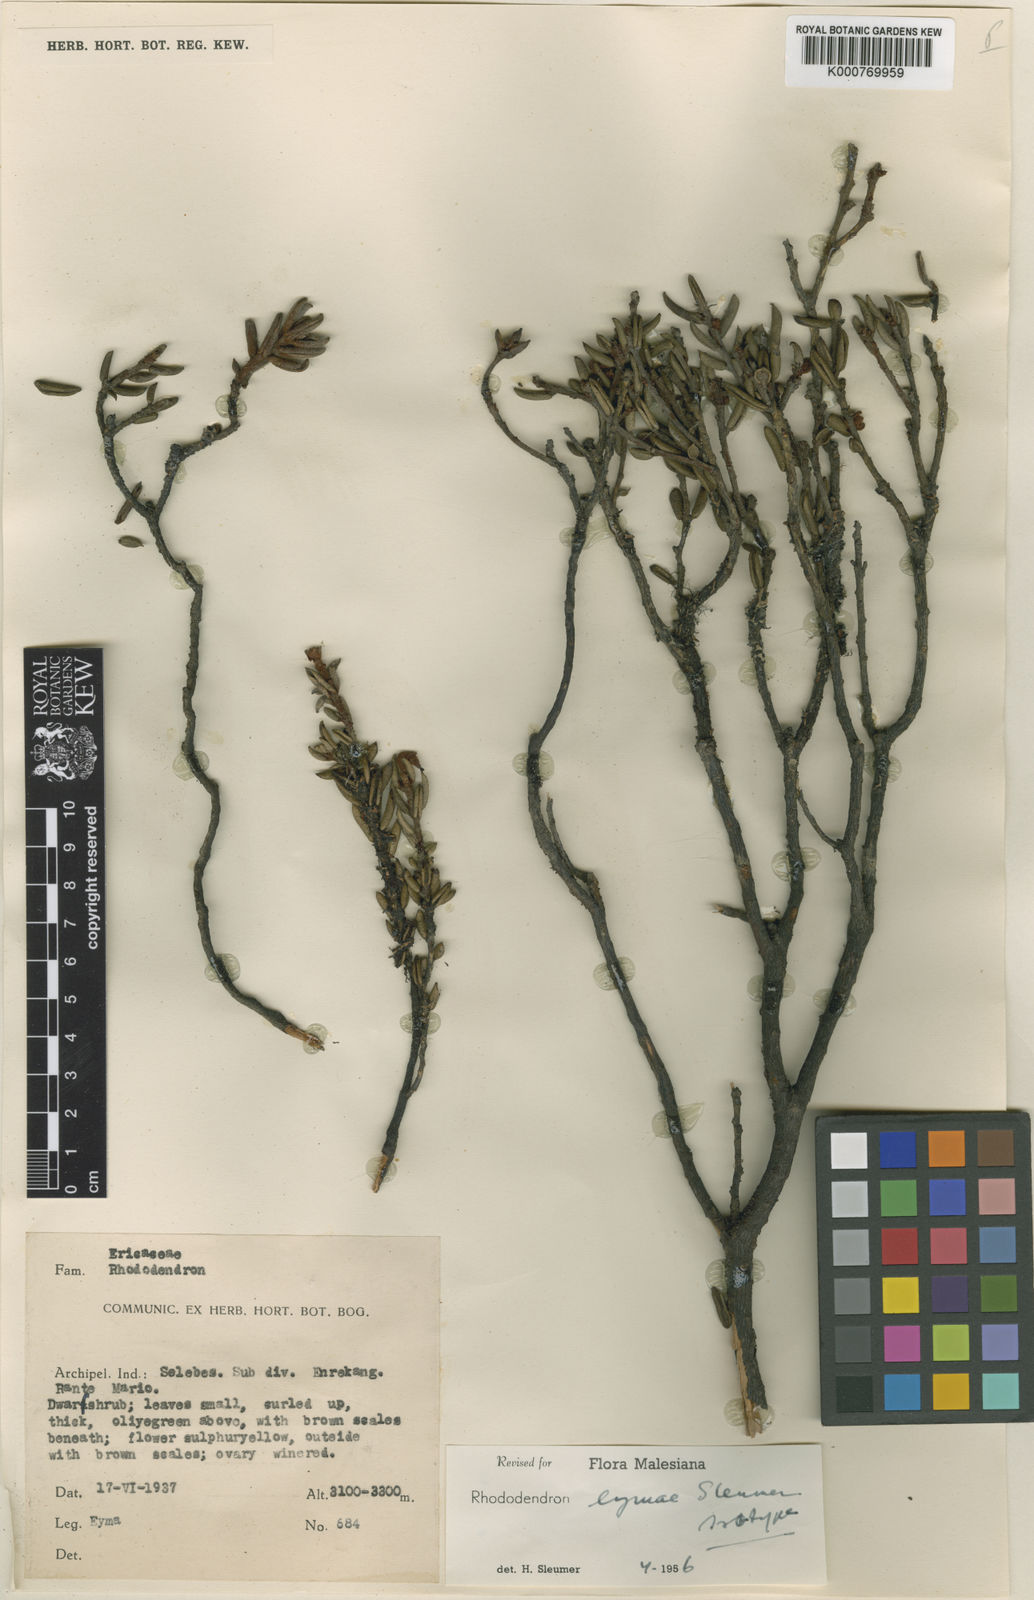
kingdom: Plantae
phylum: Tracheophyta
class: Magnoliopsida
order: Ericales
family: Ericaceae
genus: Rhododendron
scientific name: Rhododendron eymae
